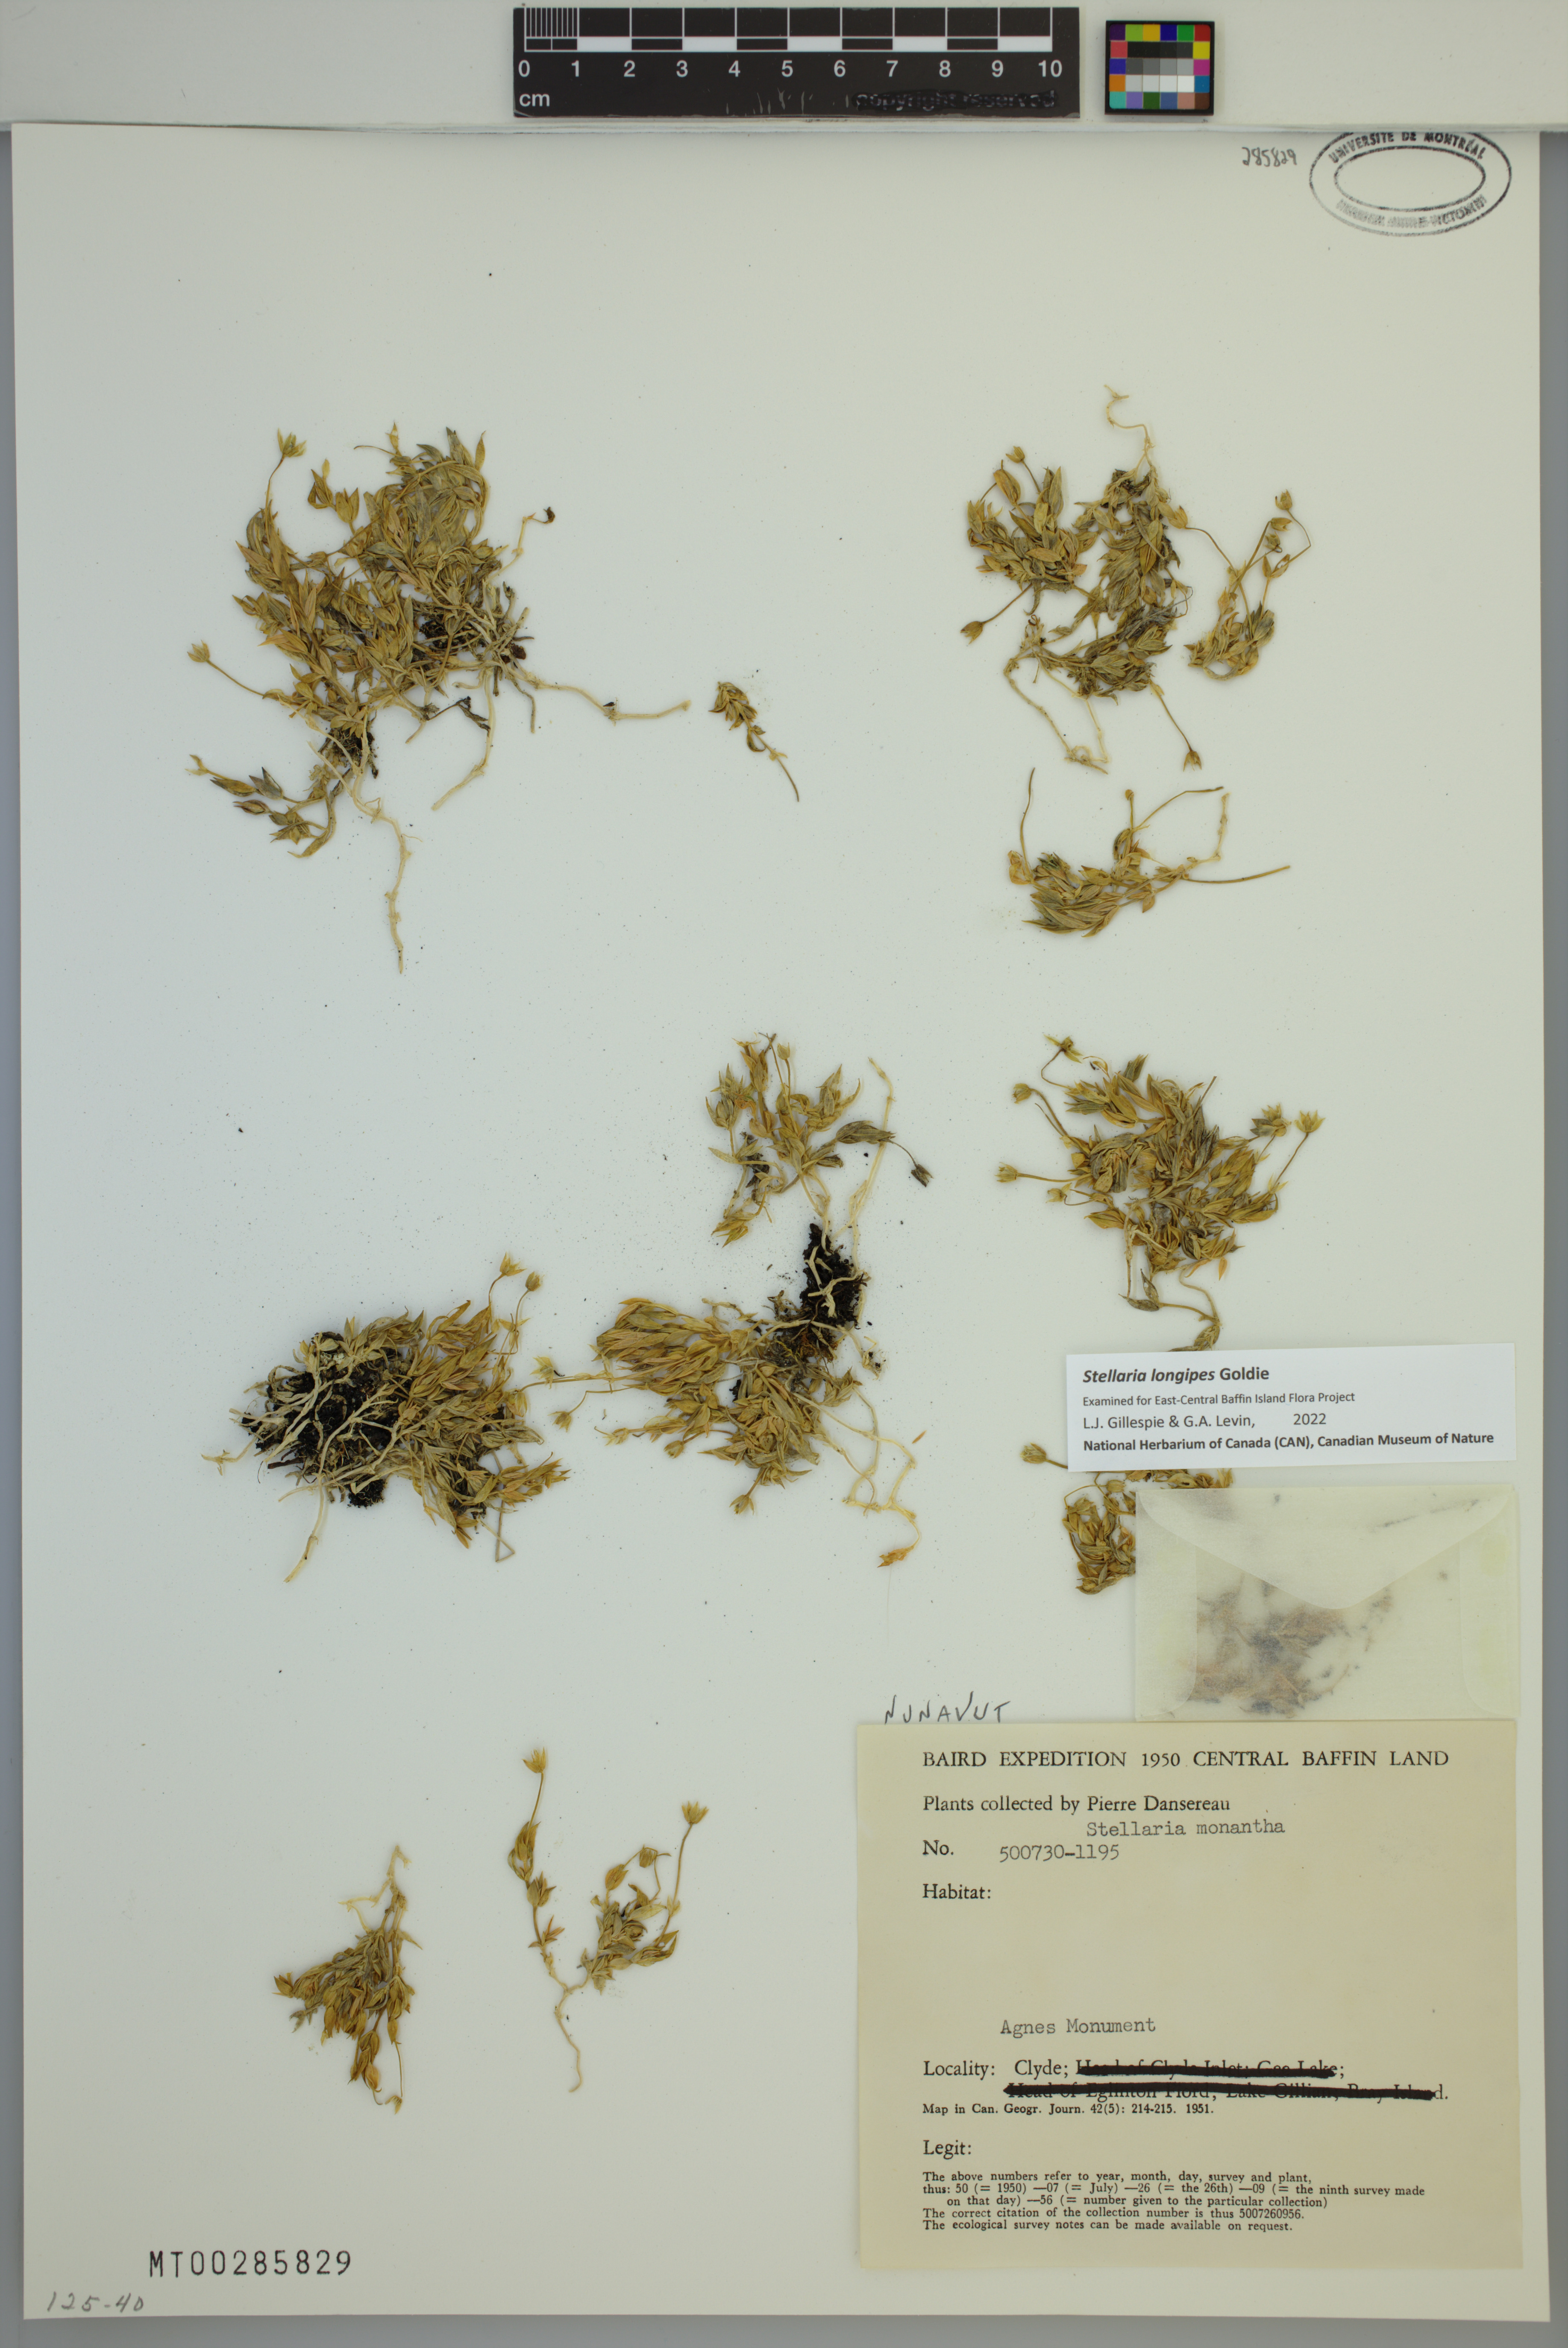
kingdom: Plantae
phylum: Tracheophyta
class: Magnoliopsida
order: Caryophyllales
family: Caryophyllaceae
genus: Stellaria
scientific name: Stellaria longipes
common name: Goldie's starwort
